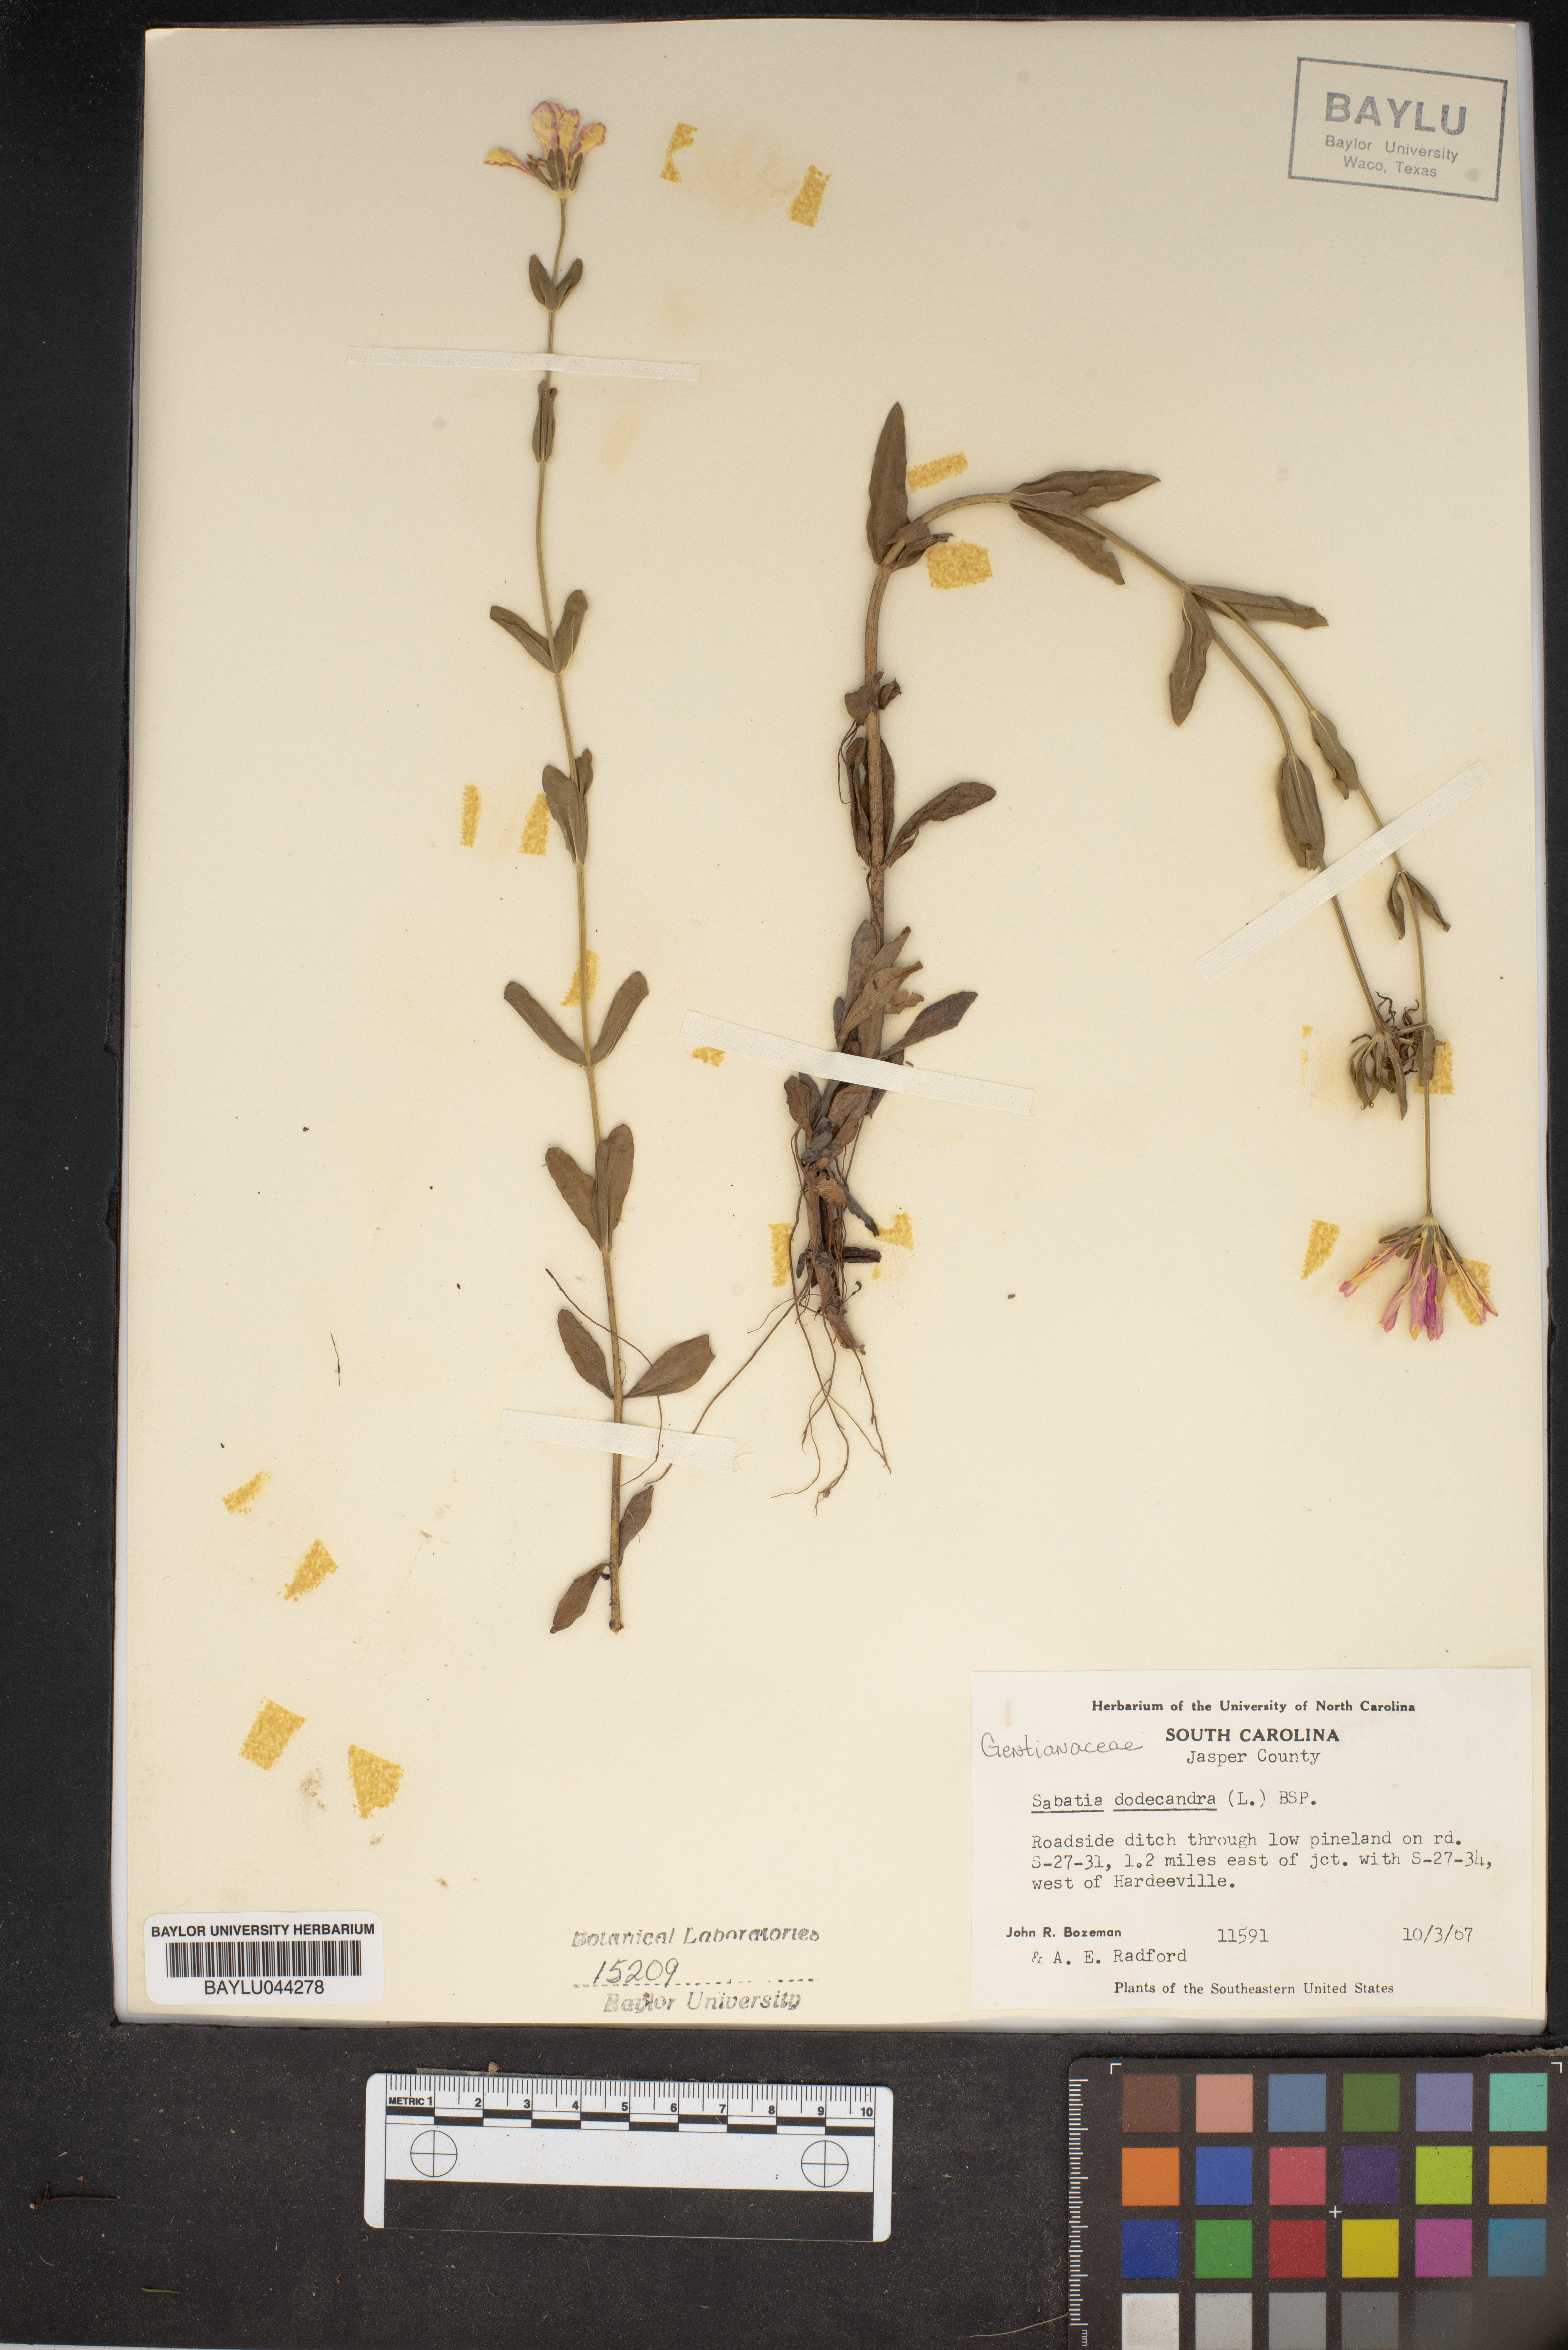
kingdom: Plantae
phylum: Tracheophyta
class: Magnoliopsida
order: Gentianales
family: Gentianaceae
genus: Sabatia
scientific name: Sabatia dodecandra
